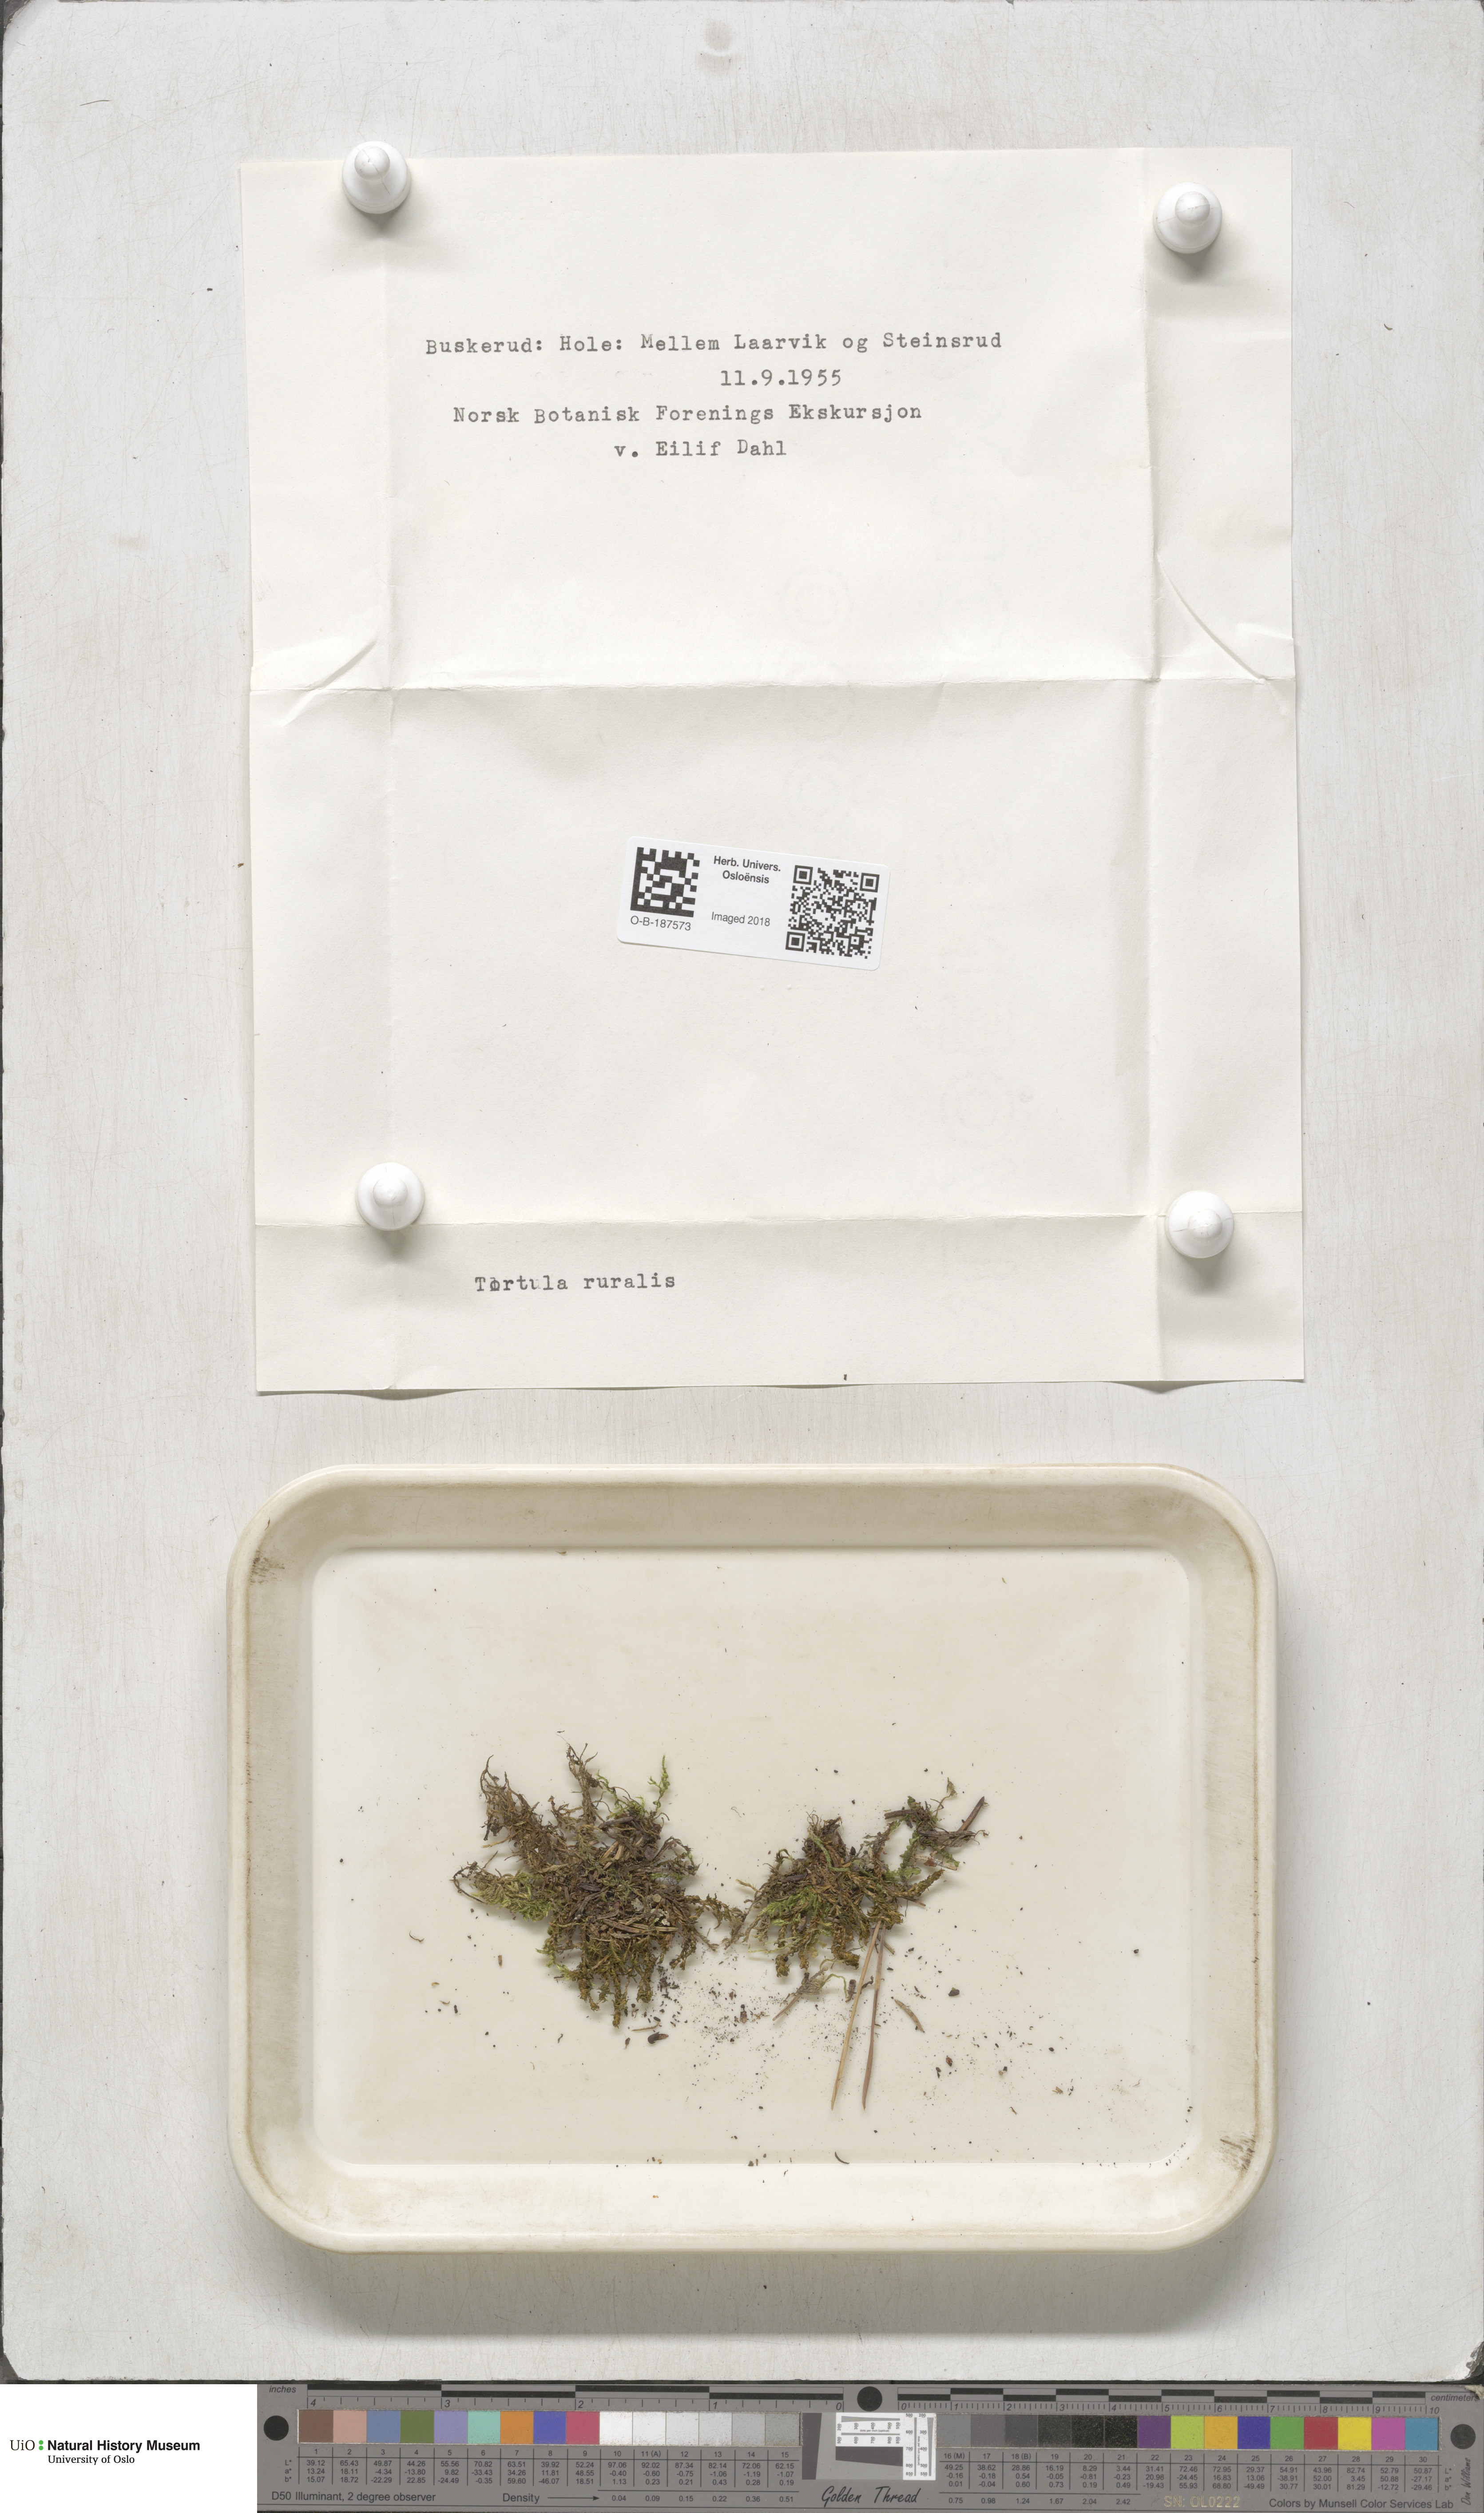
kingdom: Plantae
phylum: Bryophyta
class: Bryopsida
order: Pottiales
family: Pottiaceae
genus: Syntrichia
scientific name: Syntrichia ruralis
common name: Sidewalk screw moss
